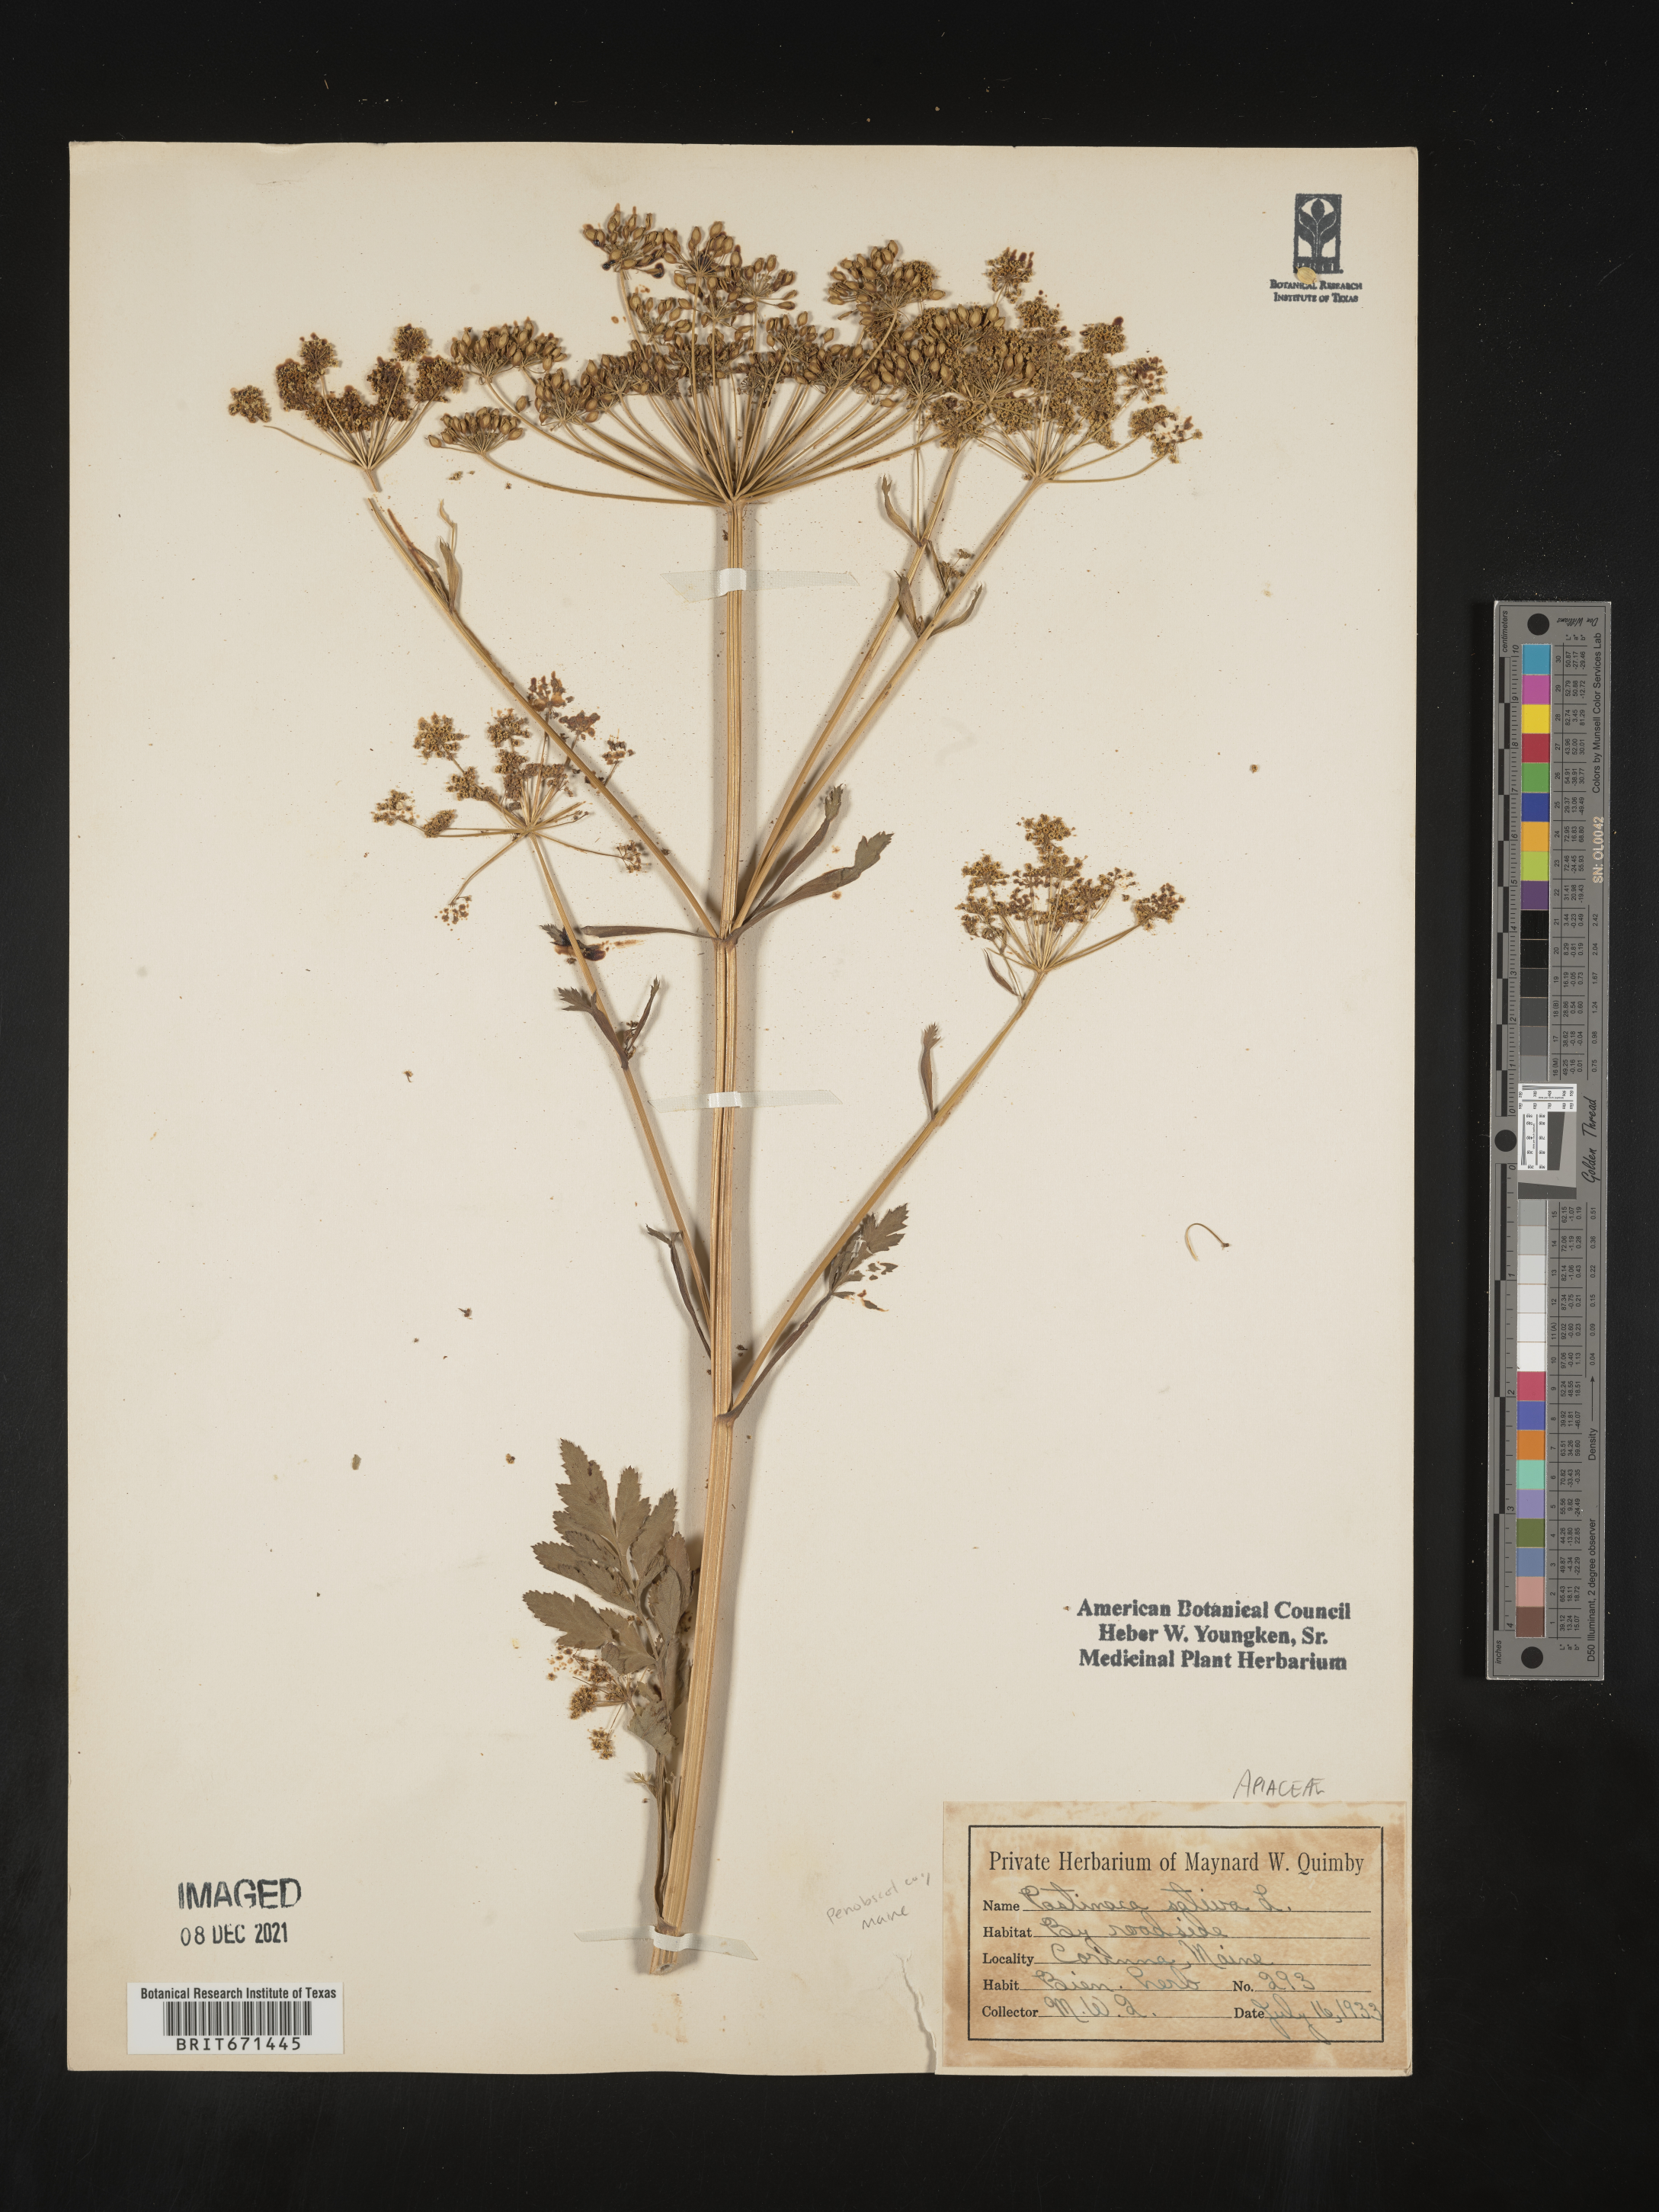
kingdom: Plantae
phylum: Tracheophyta
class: Magnoliopsida
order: Apiales
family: Apiaceae
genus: Pastinaca
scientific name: Pastinaca
